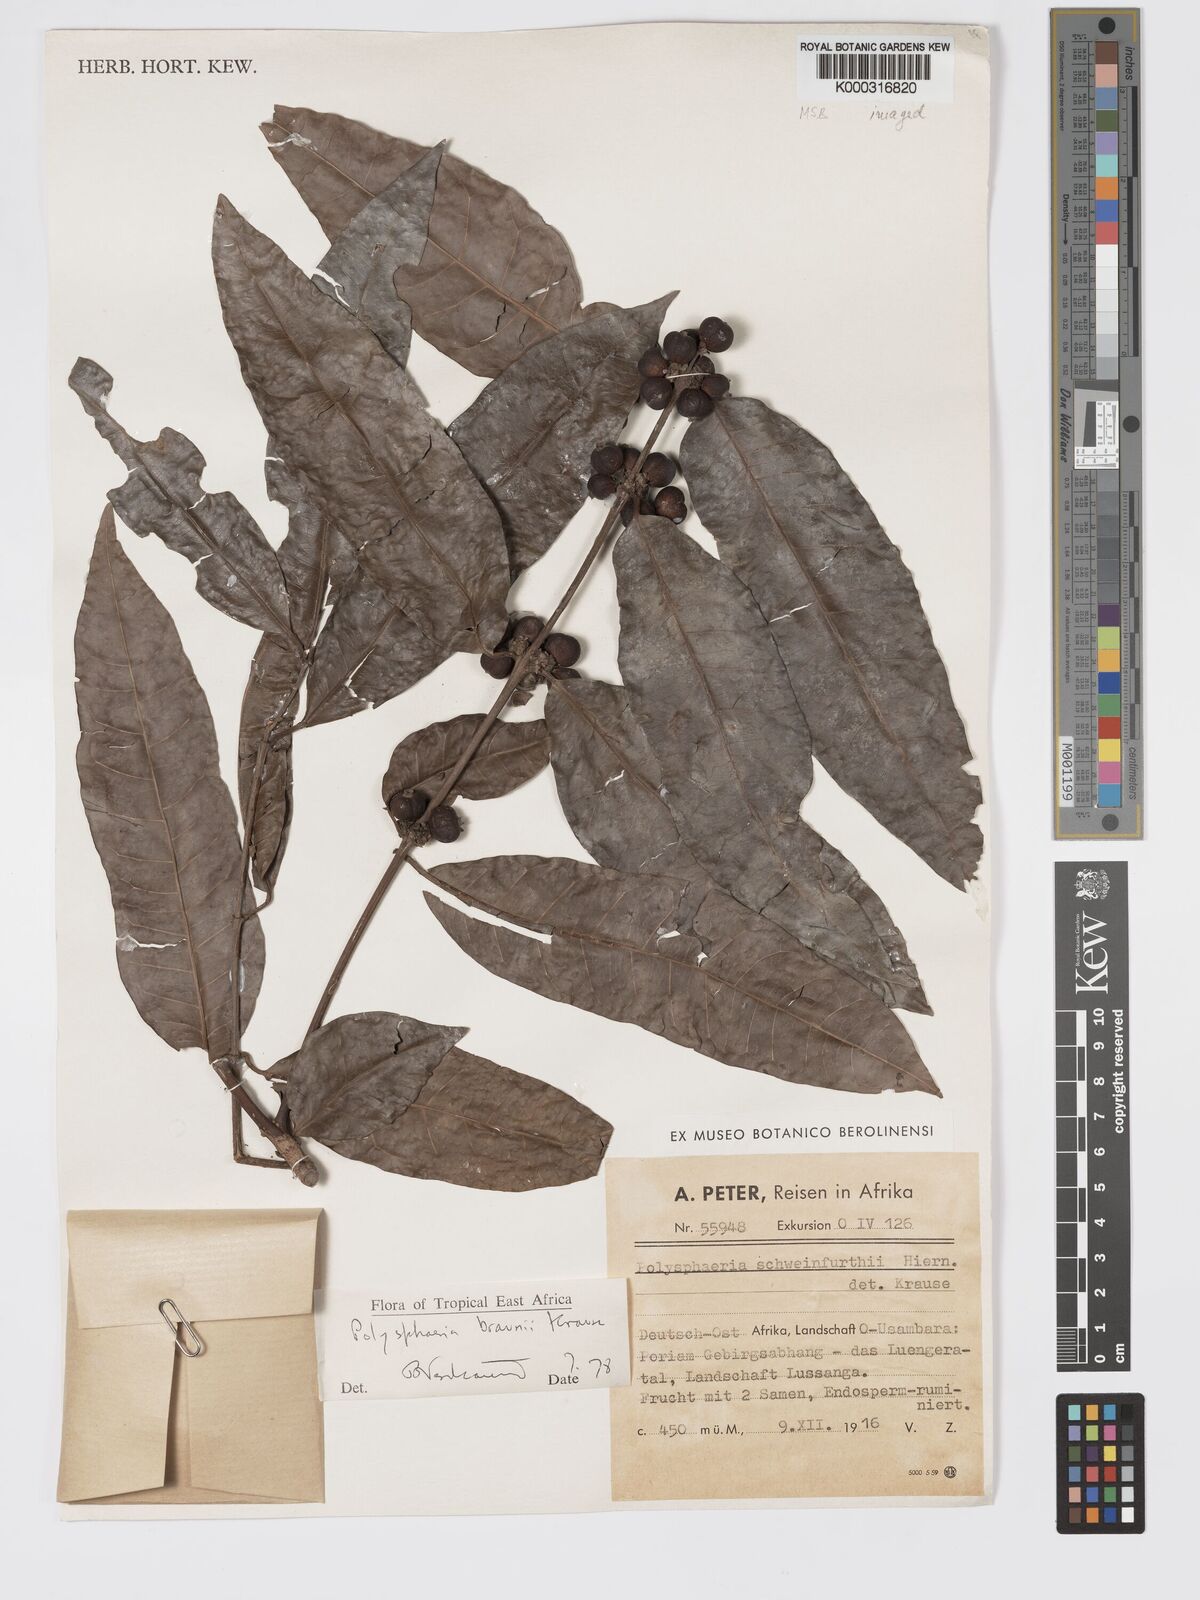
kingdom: Plantae
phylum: Tracheophyta
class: Magnoliopsida
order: Gentianales
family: Rubiaceae
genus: Polysphaeria
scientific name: Polysphaeria braunii
